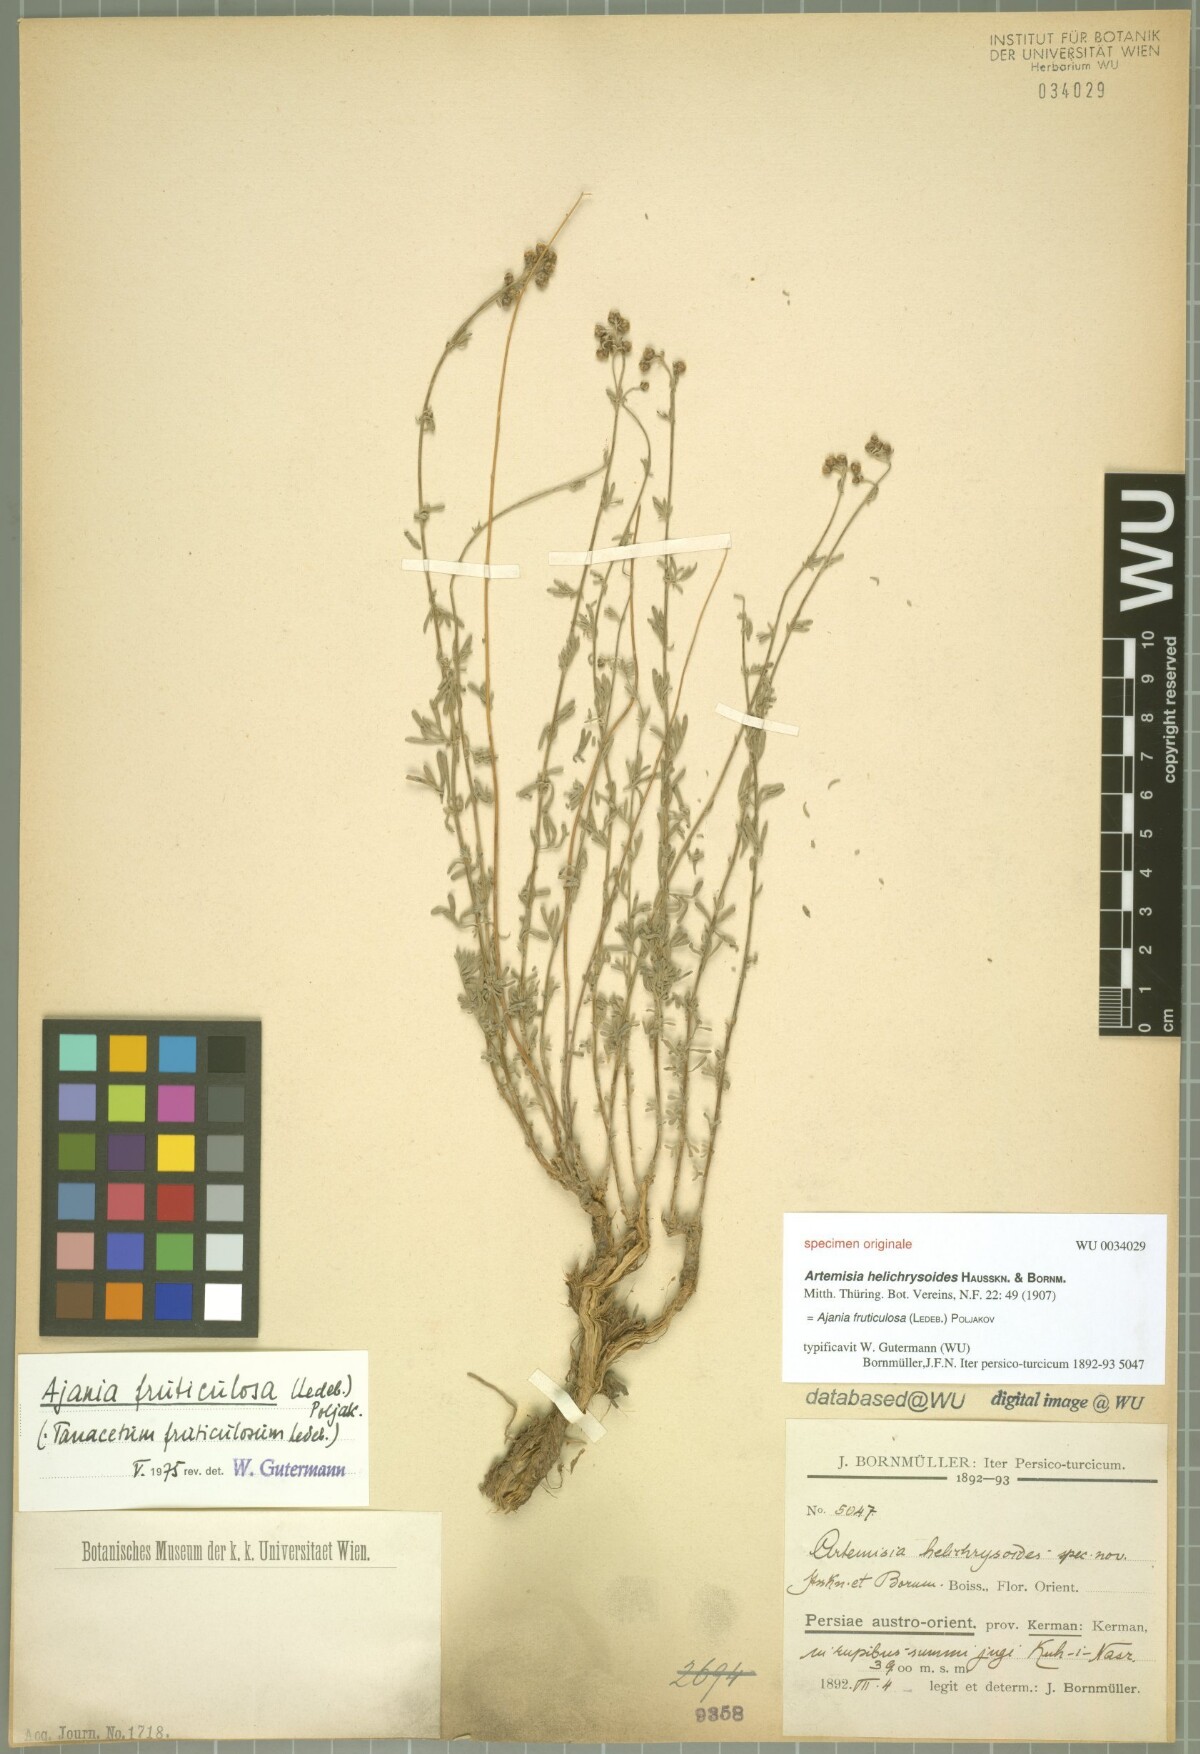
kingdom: Plantae
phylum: Tracheophyta
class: Magnoliopsida
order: Asterales
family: Asteraceae
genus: Artemisia
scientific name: Artemisia
